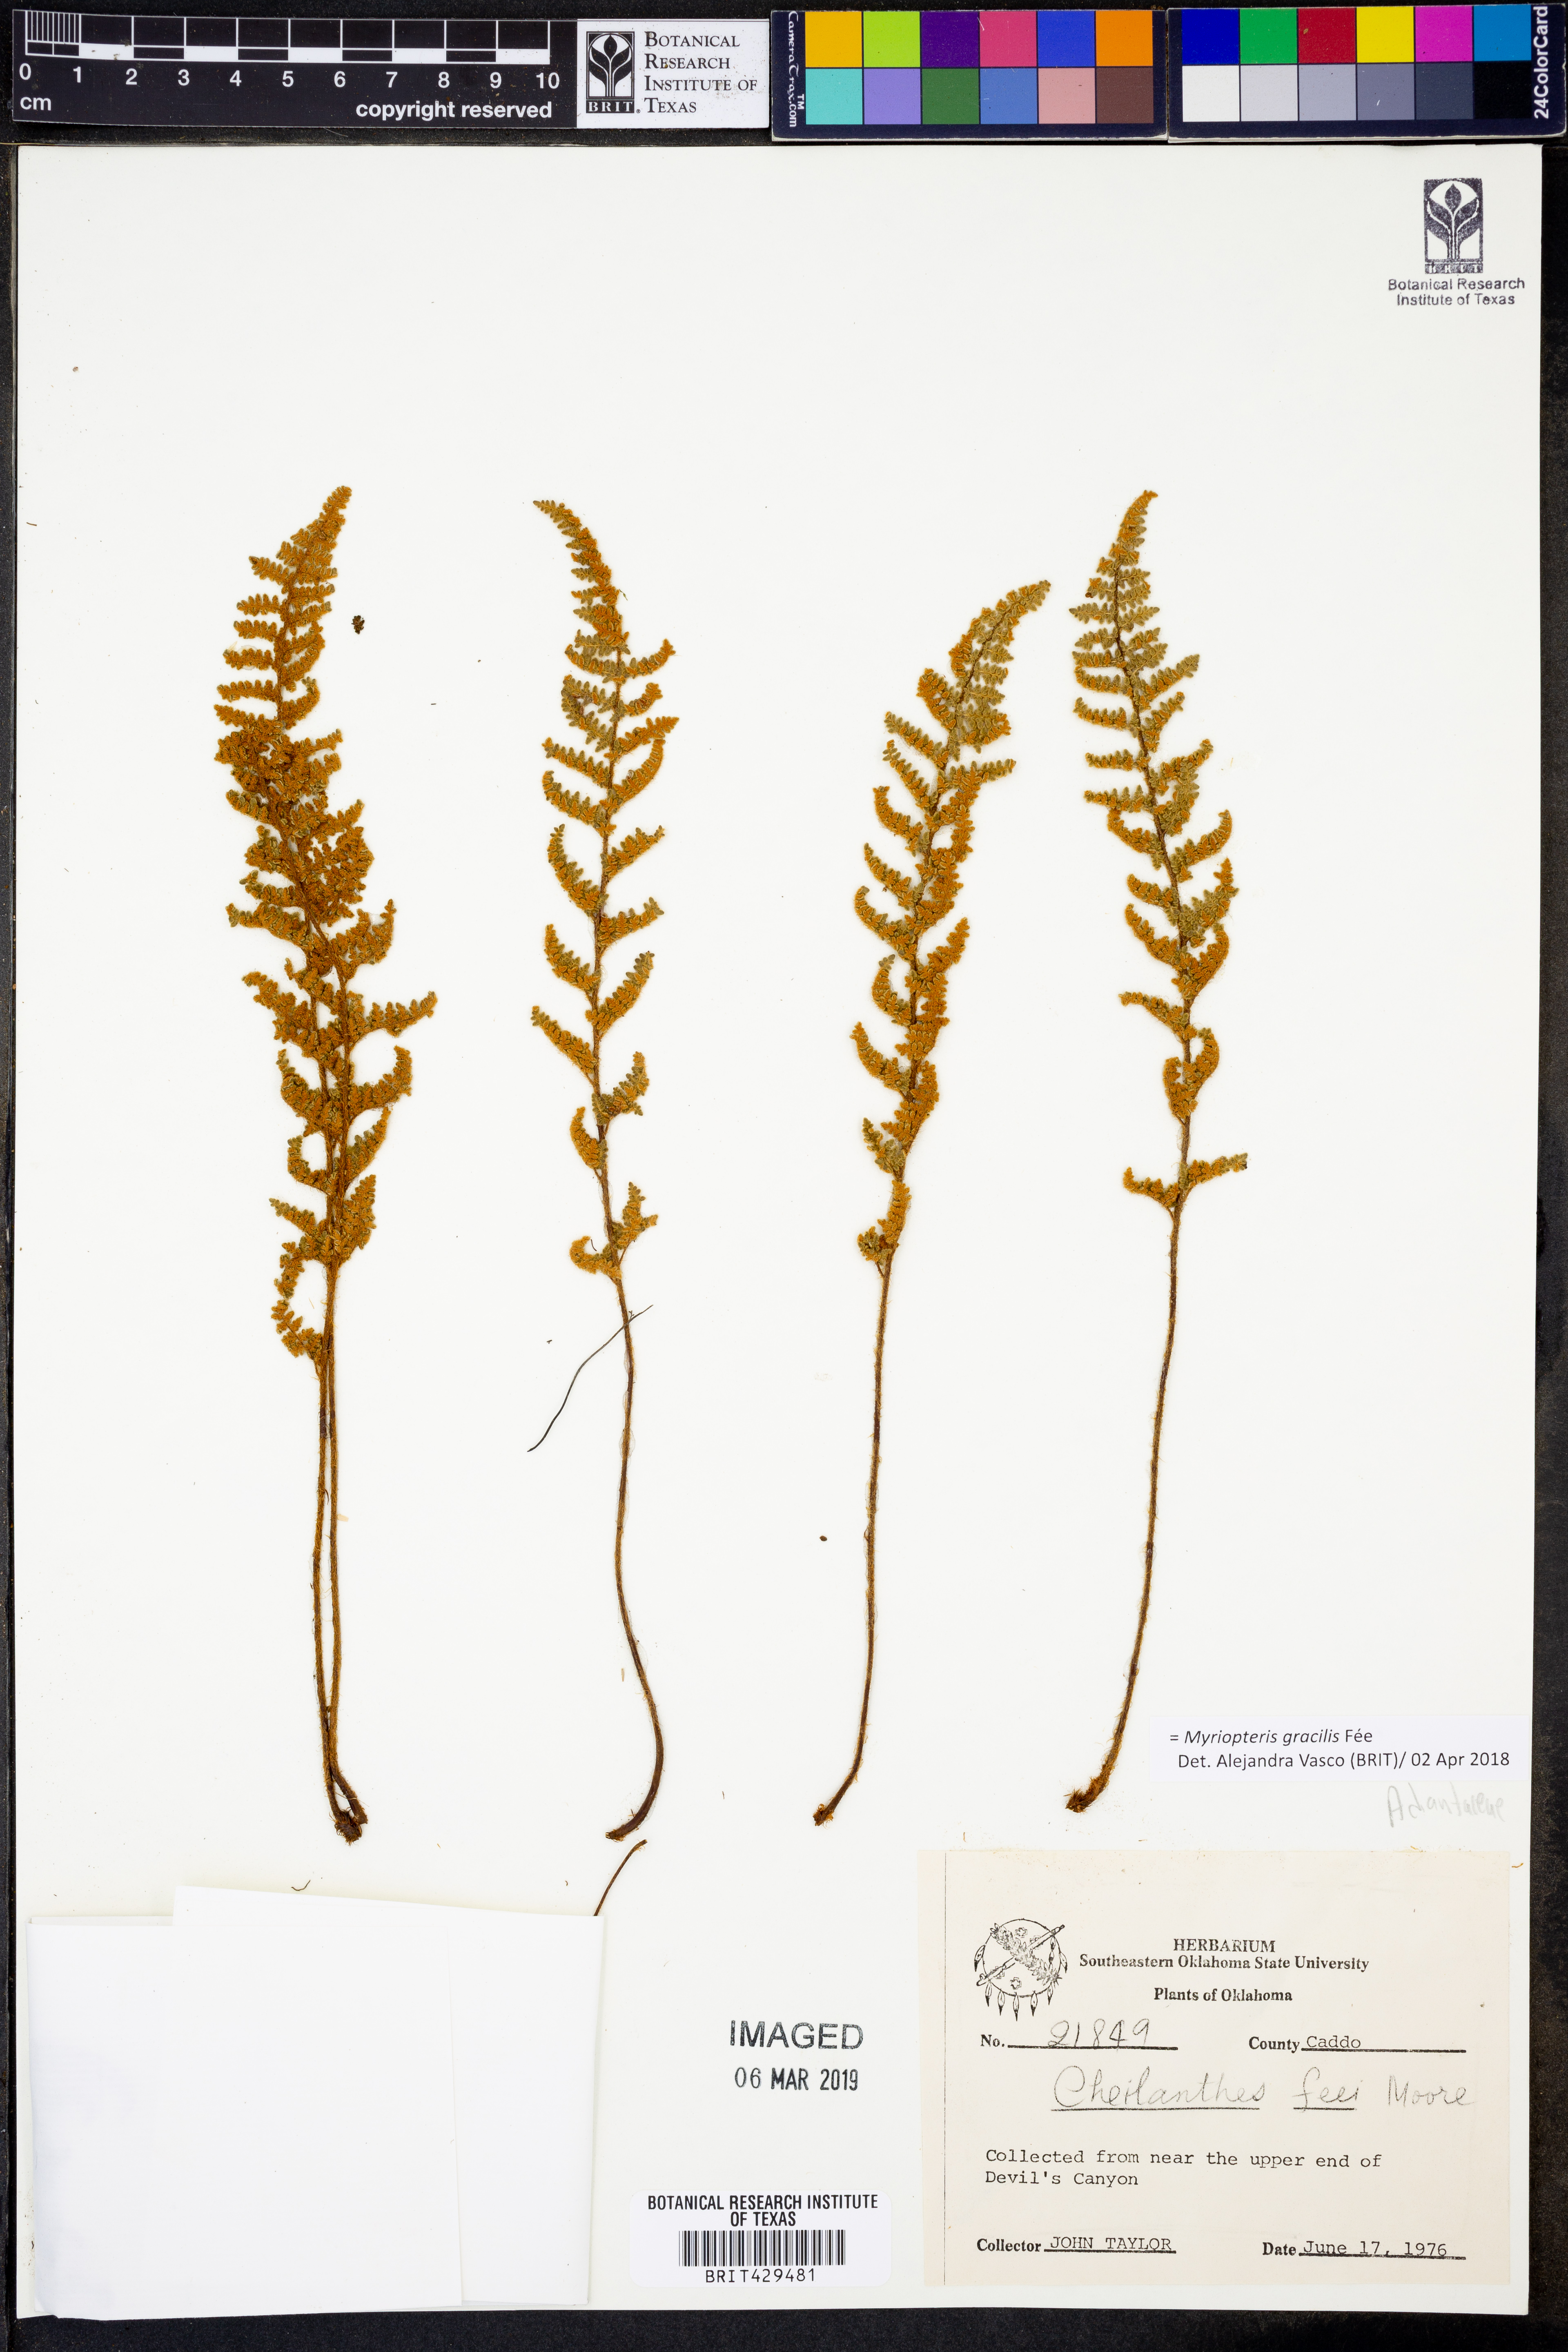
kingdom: Plantae
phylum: Tracheophyta
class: Polypodiopsida
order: Polypodiales
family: Pteridaceae
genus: Myriopteris
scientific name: Myriopteris gracilis
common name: Fee's lip fern
